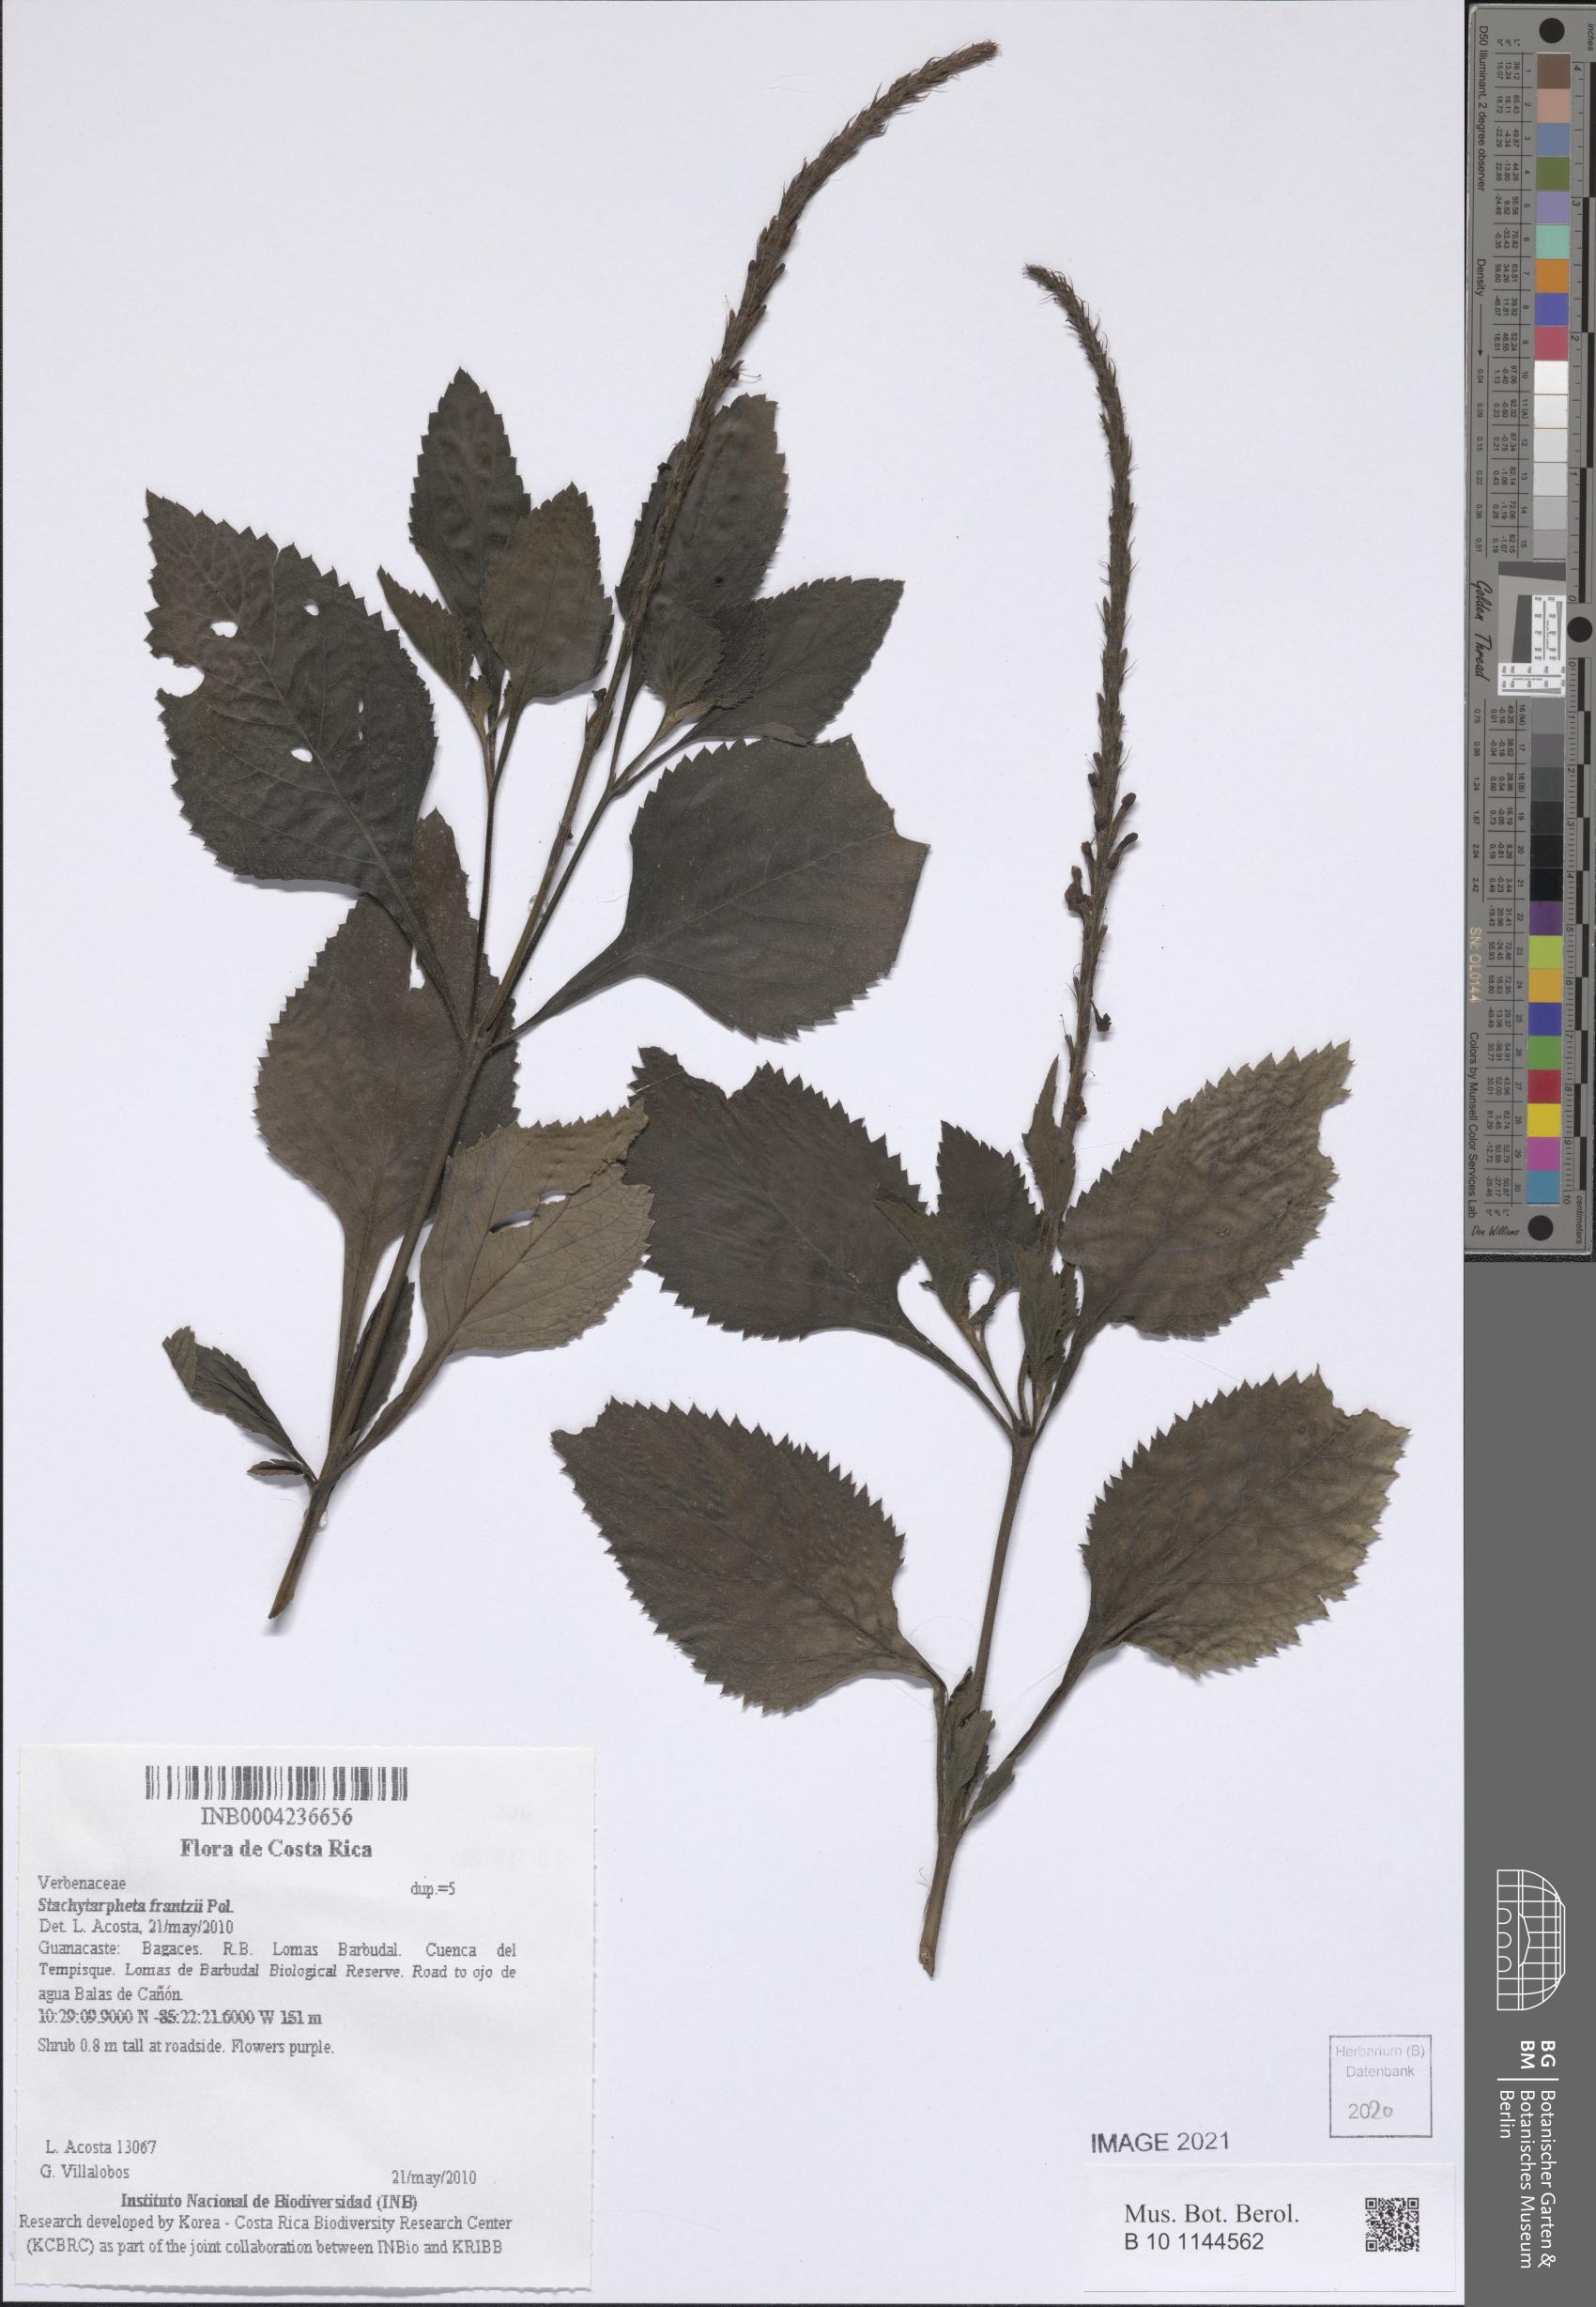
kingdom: Plantae
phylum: Tracheophyta
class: Magnoliopsida
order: Lamiales
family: Verbenaceae
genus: Stachytarpheta
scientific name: Stachytarpheta frantzii
